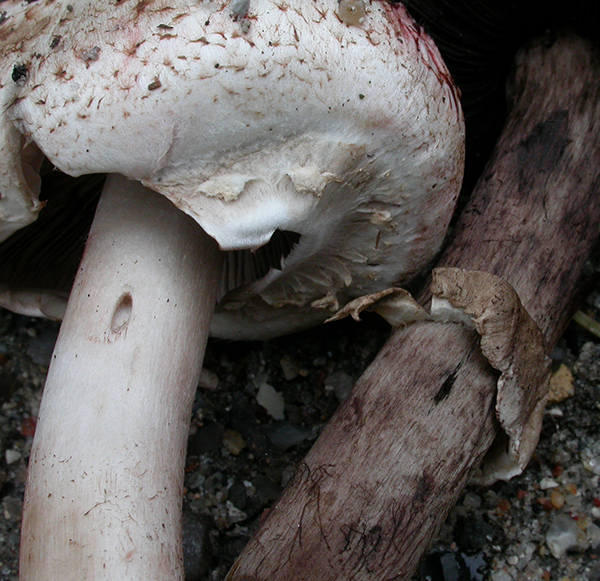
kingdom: Fungi
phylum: Basidiomycota
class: Agaricomycetes
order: Agaricales
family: Agaricaceae
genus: Agaricus
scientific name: Agaricus benesii
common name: hvid blod-champignon
